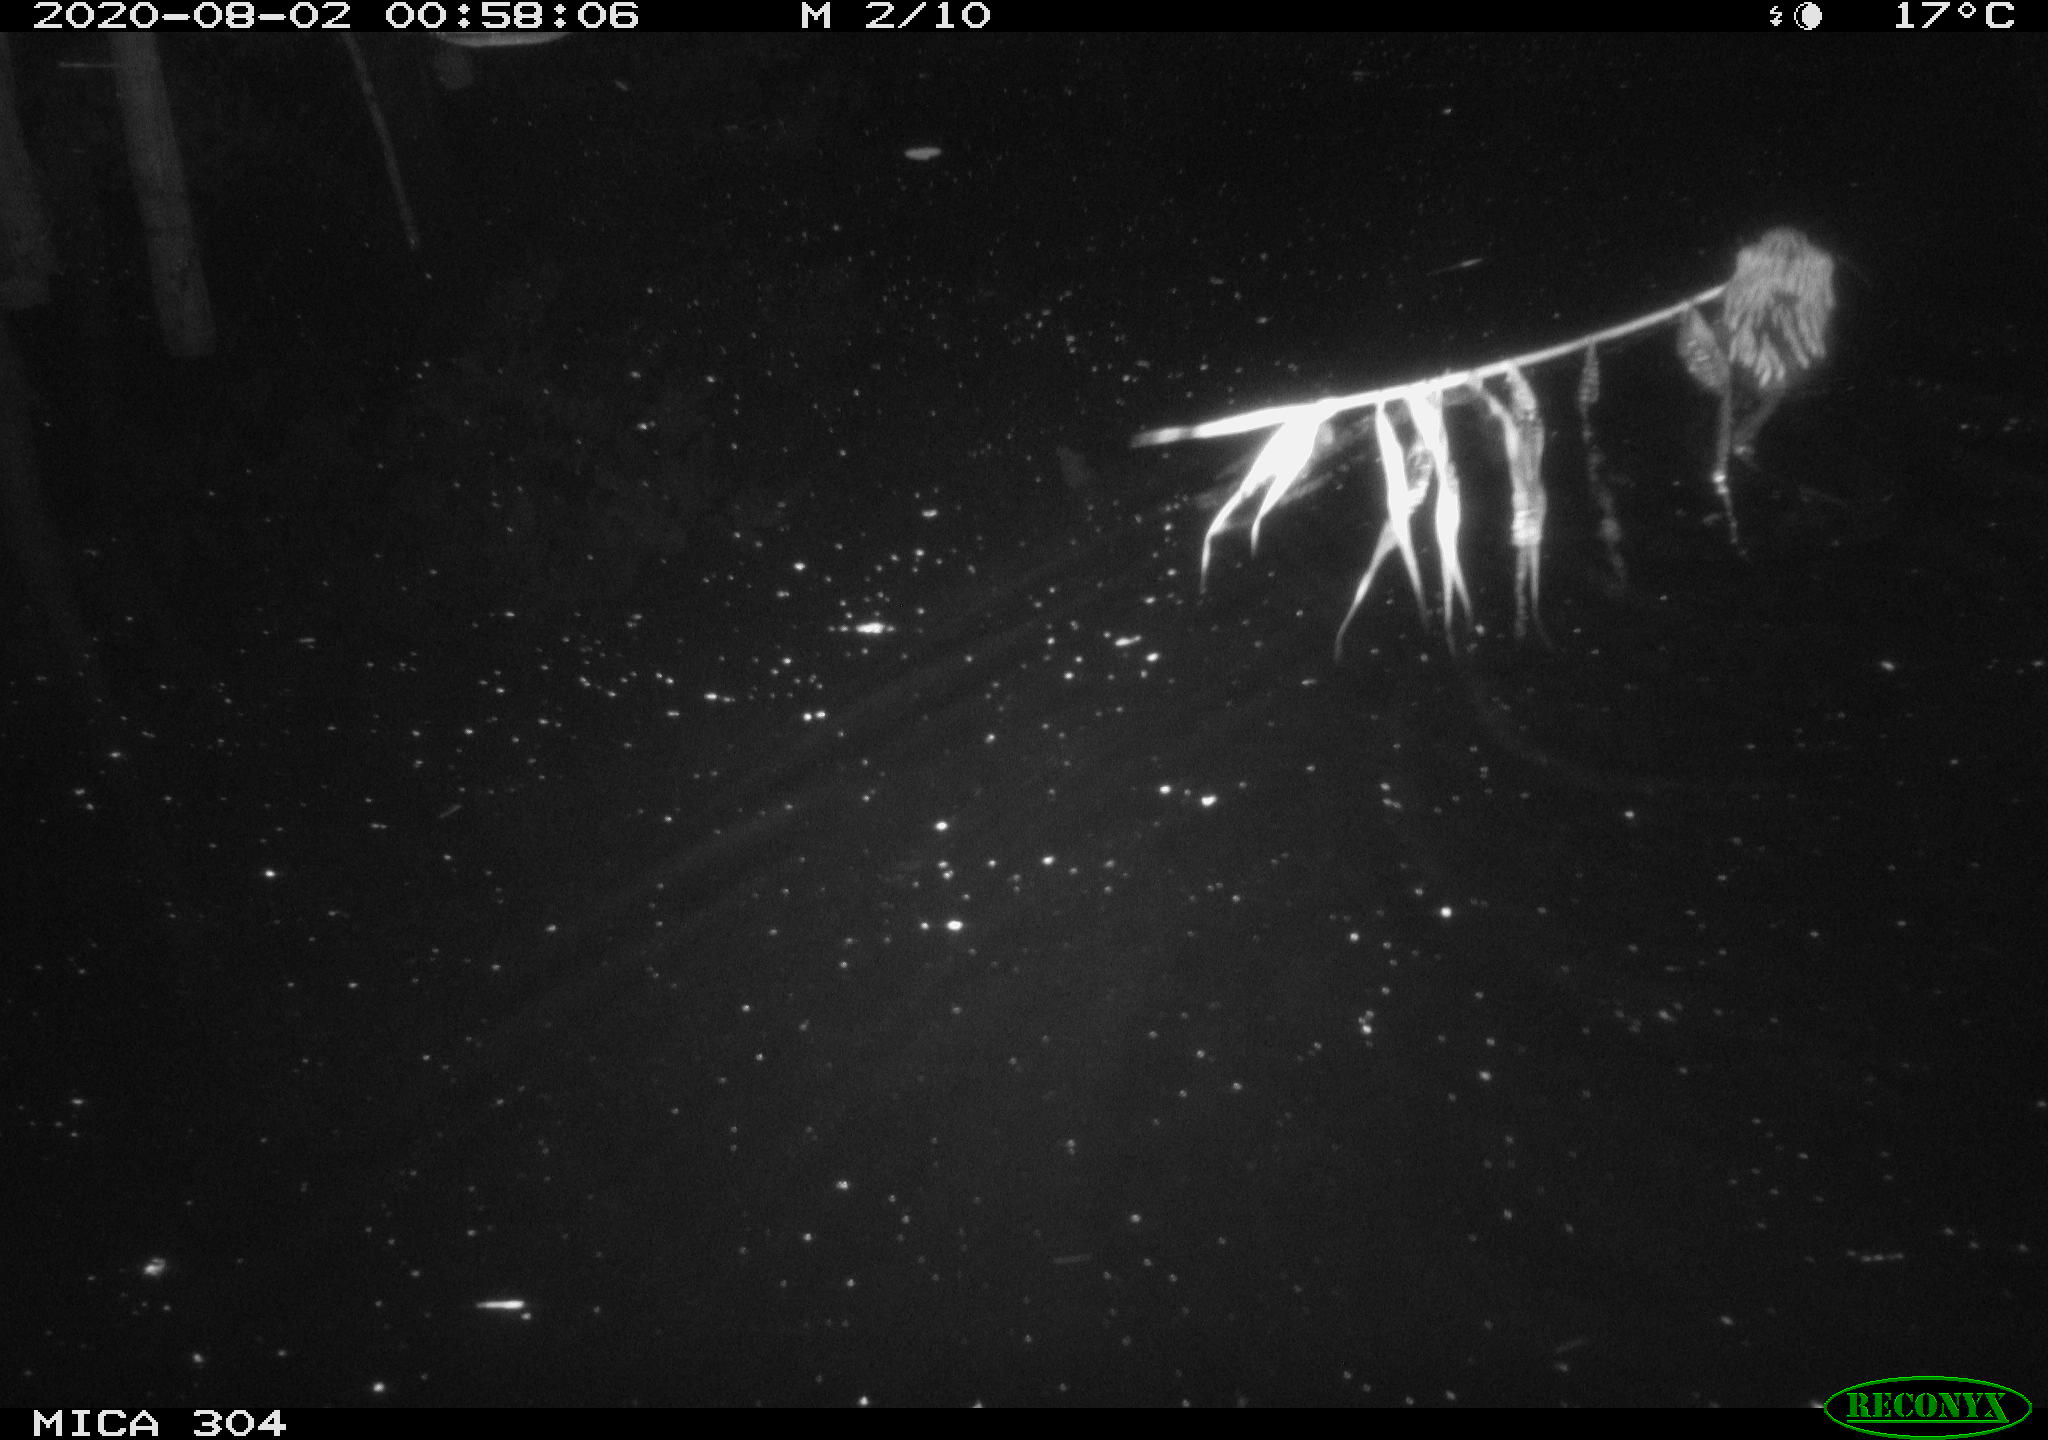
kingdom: Animalia
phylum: Chordata
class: Mammalia
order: Rodentia
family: Cricetidae
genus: Ondatra
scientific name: Ondatra zibethicus
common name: Muskrat
